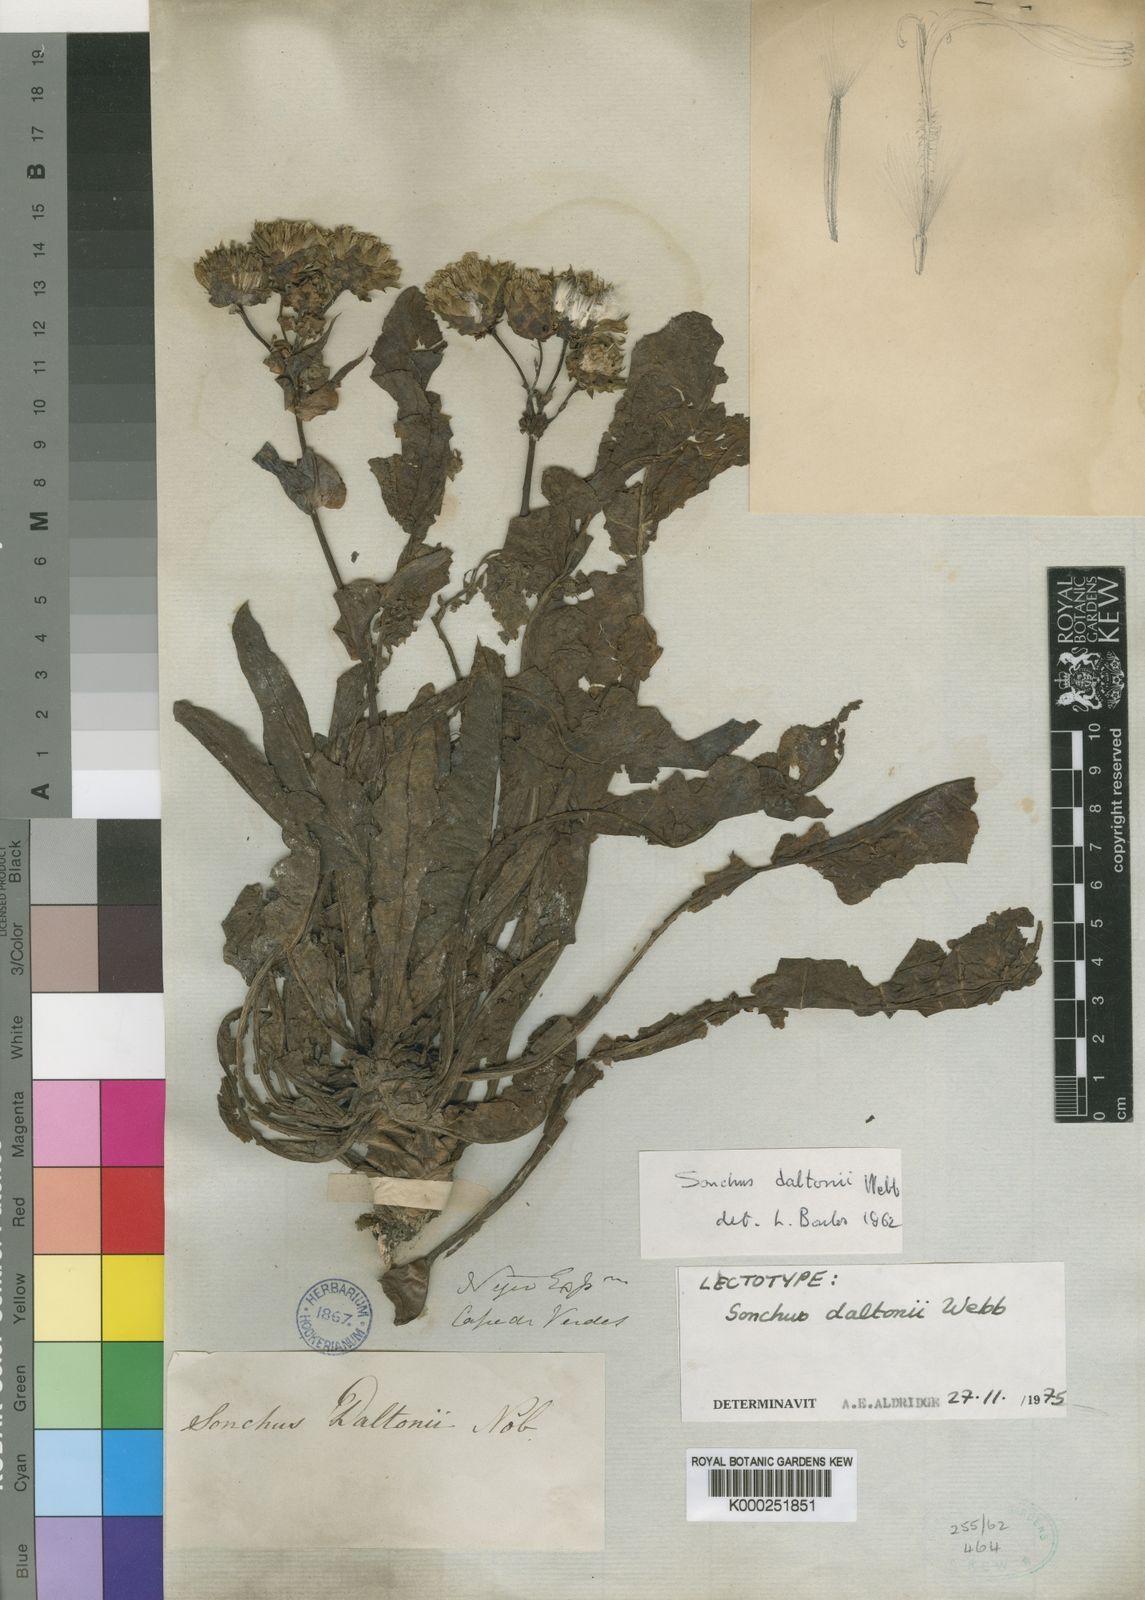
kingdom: Plantae
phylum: Tracheophyta
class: Magnoliopsida
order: Asterales
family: Asteraceae
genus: Sonchus
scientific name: Sonchus daltonii
